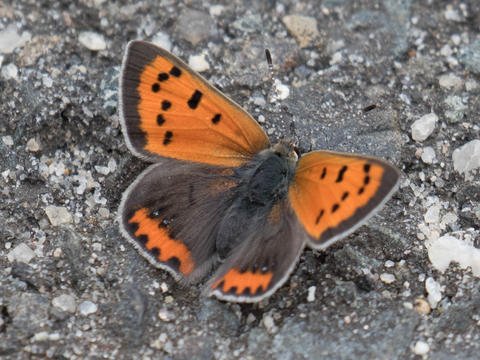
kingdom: Animalia
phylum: Arthropoda
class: Insecta
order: Lepidoptera
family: Lycaenidae
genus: Lycaena
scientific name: Lycaena phlaeas
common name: American Copper
